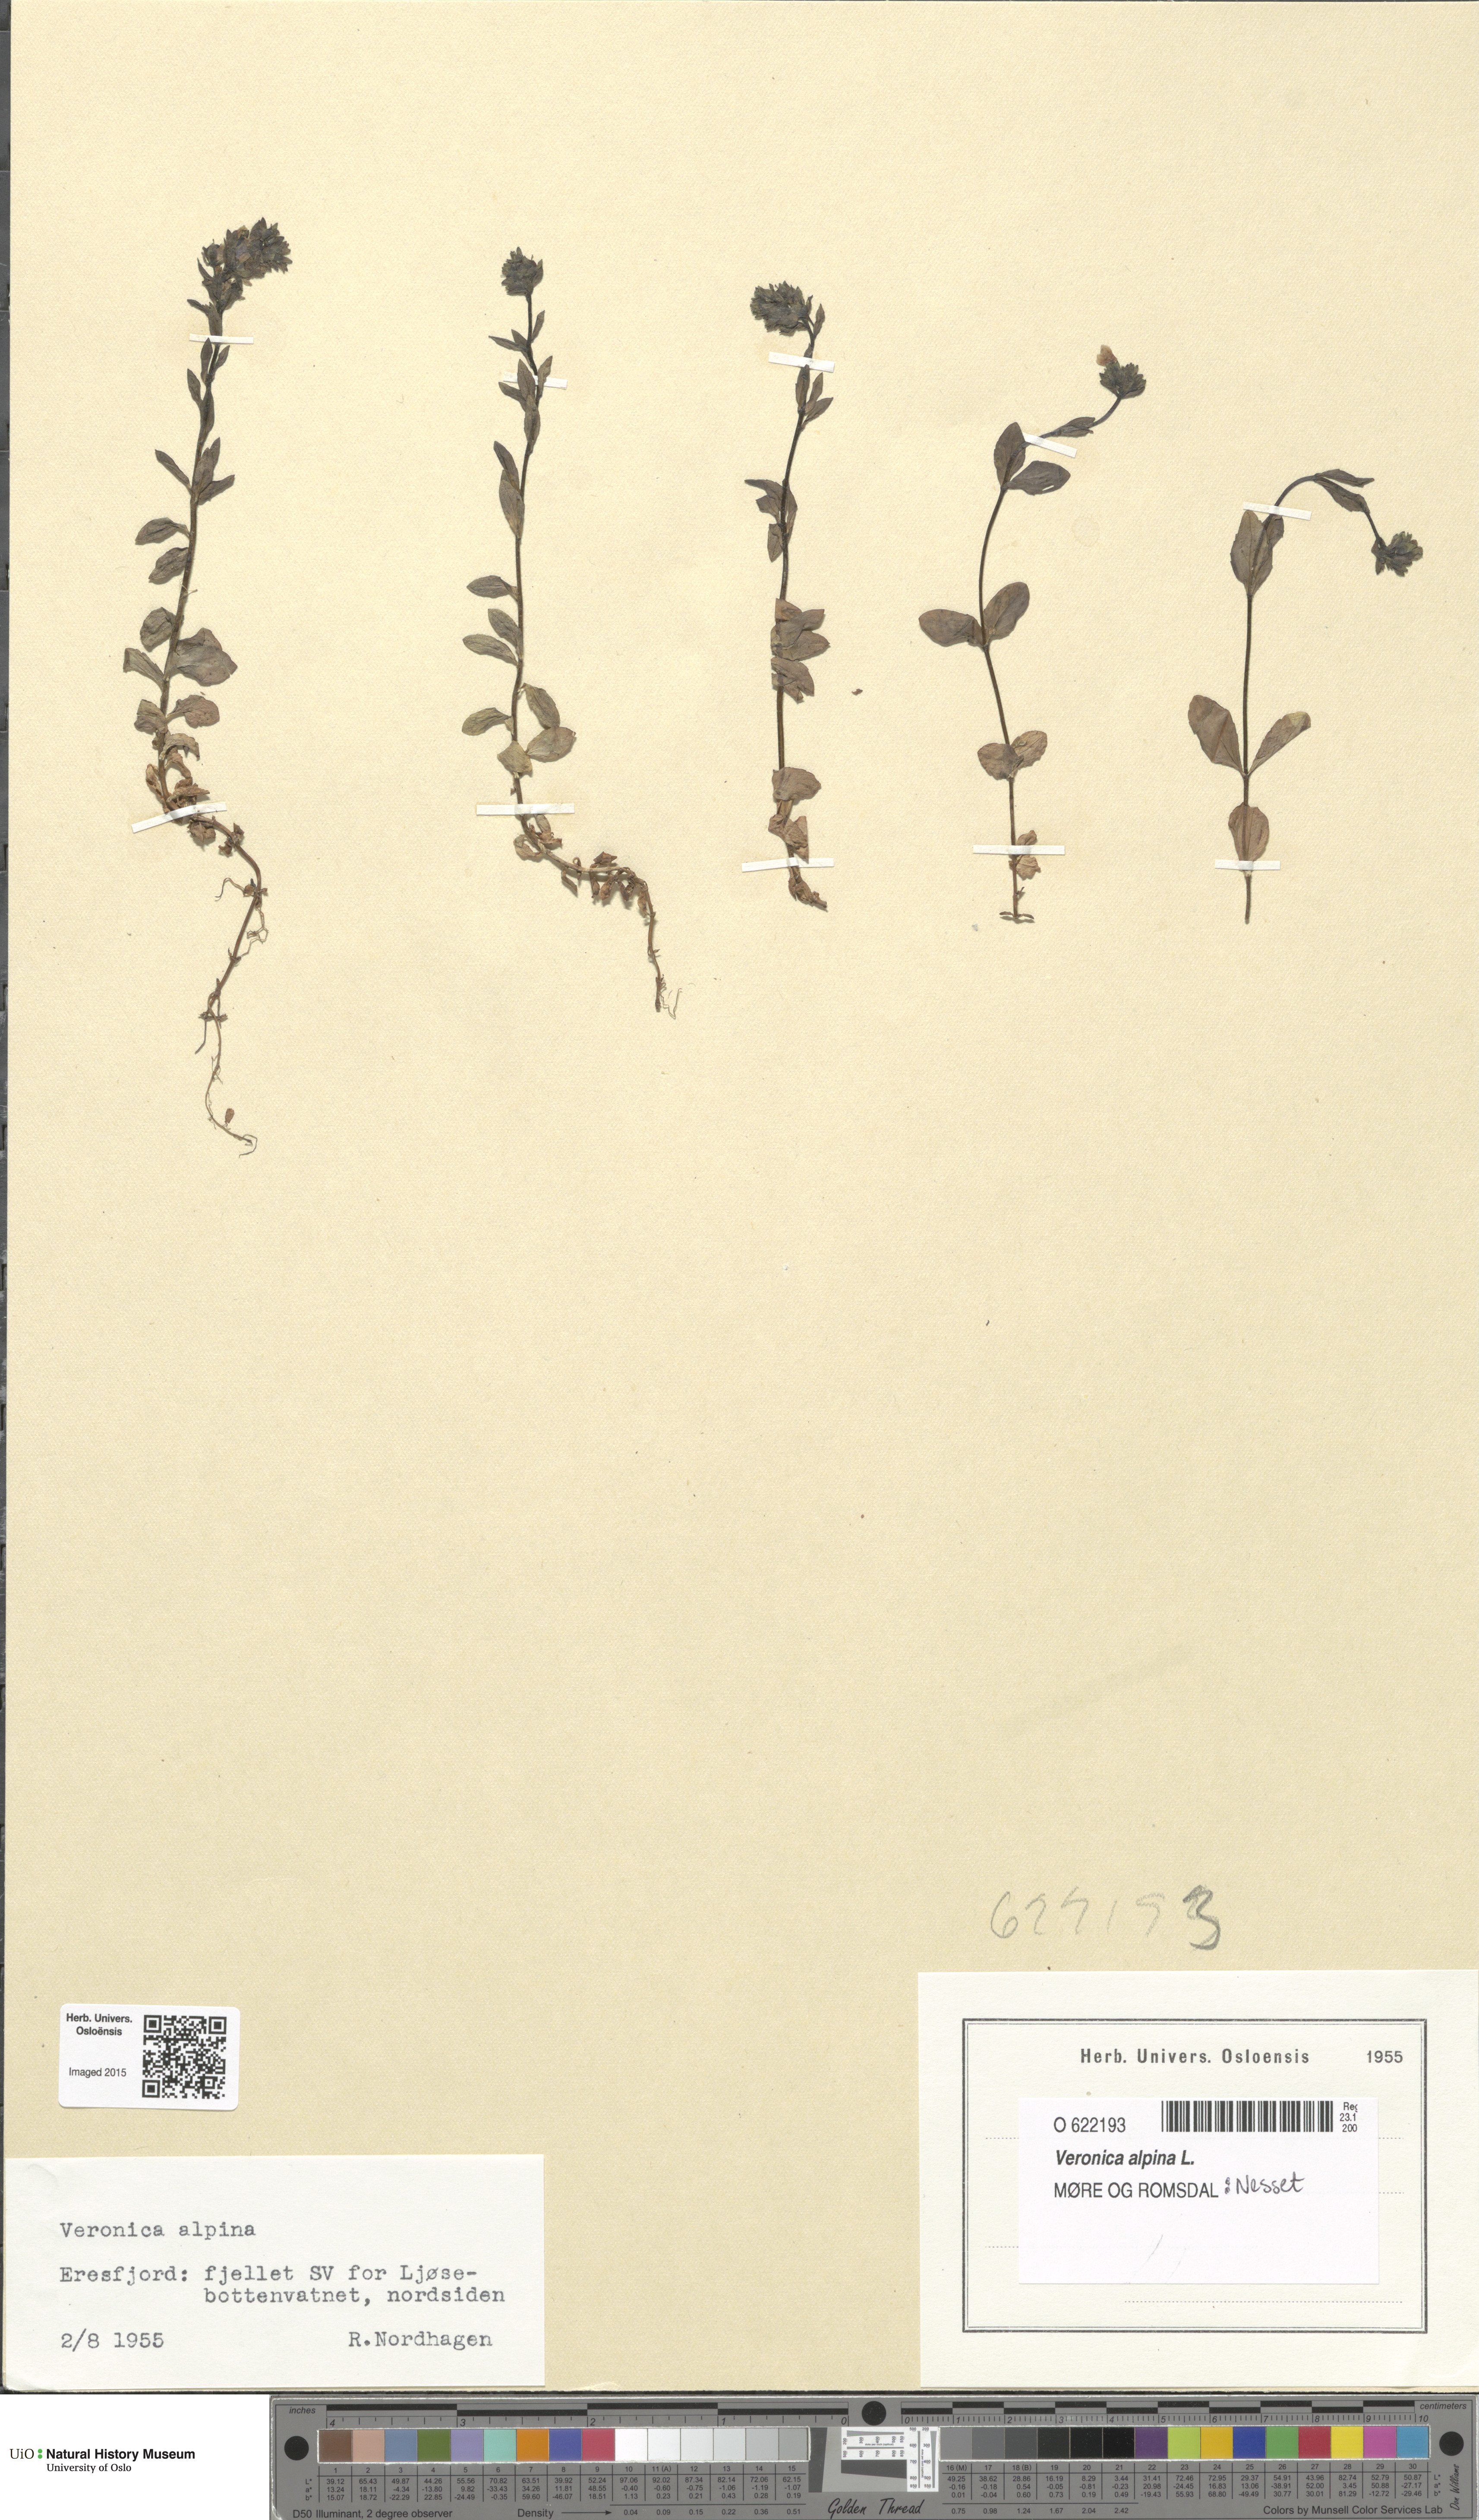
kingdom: Plantae
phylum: Tracheophyta
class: Magnoliopsida
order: Lamiales
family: Plantaginaceae
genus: Veronica
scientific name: Veronica alpina
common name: Alpine speedwell
